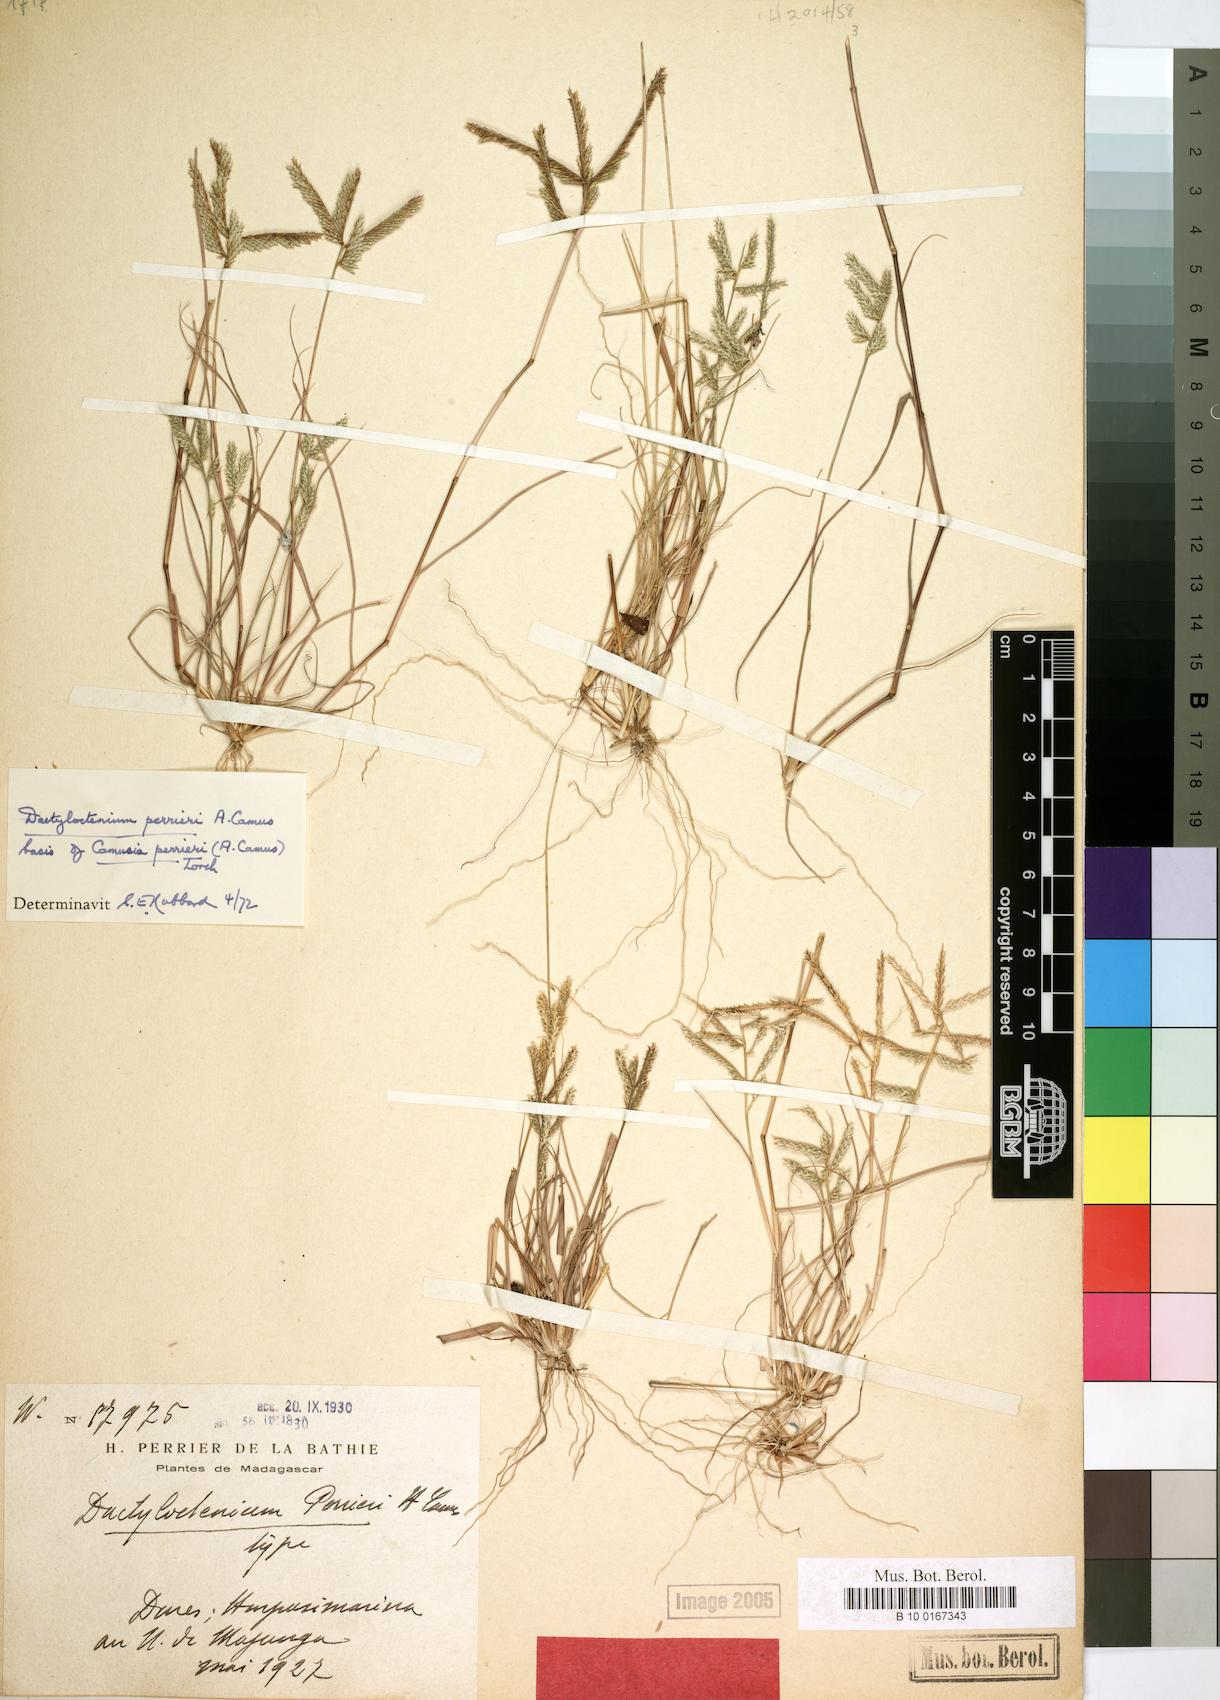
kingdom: Plantae
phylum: Tracheophyta
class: Liliopsida
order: Poales
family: Poaceae
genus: Acrachne
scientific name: Acrachne perrieri
